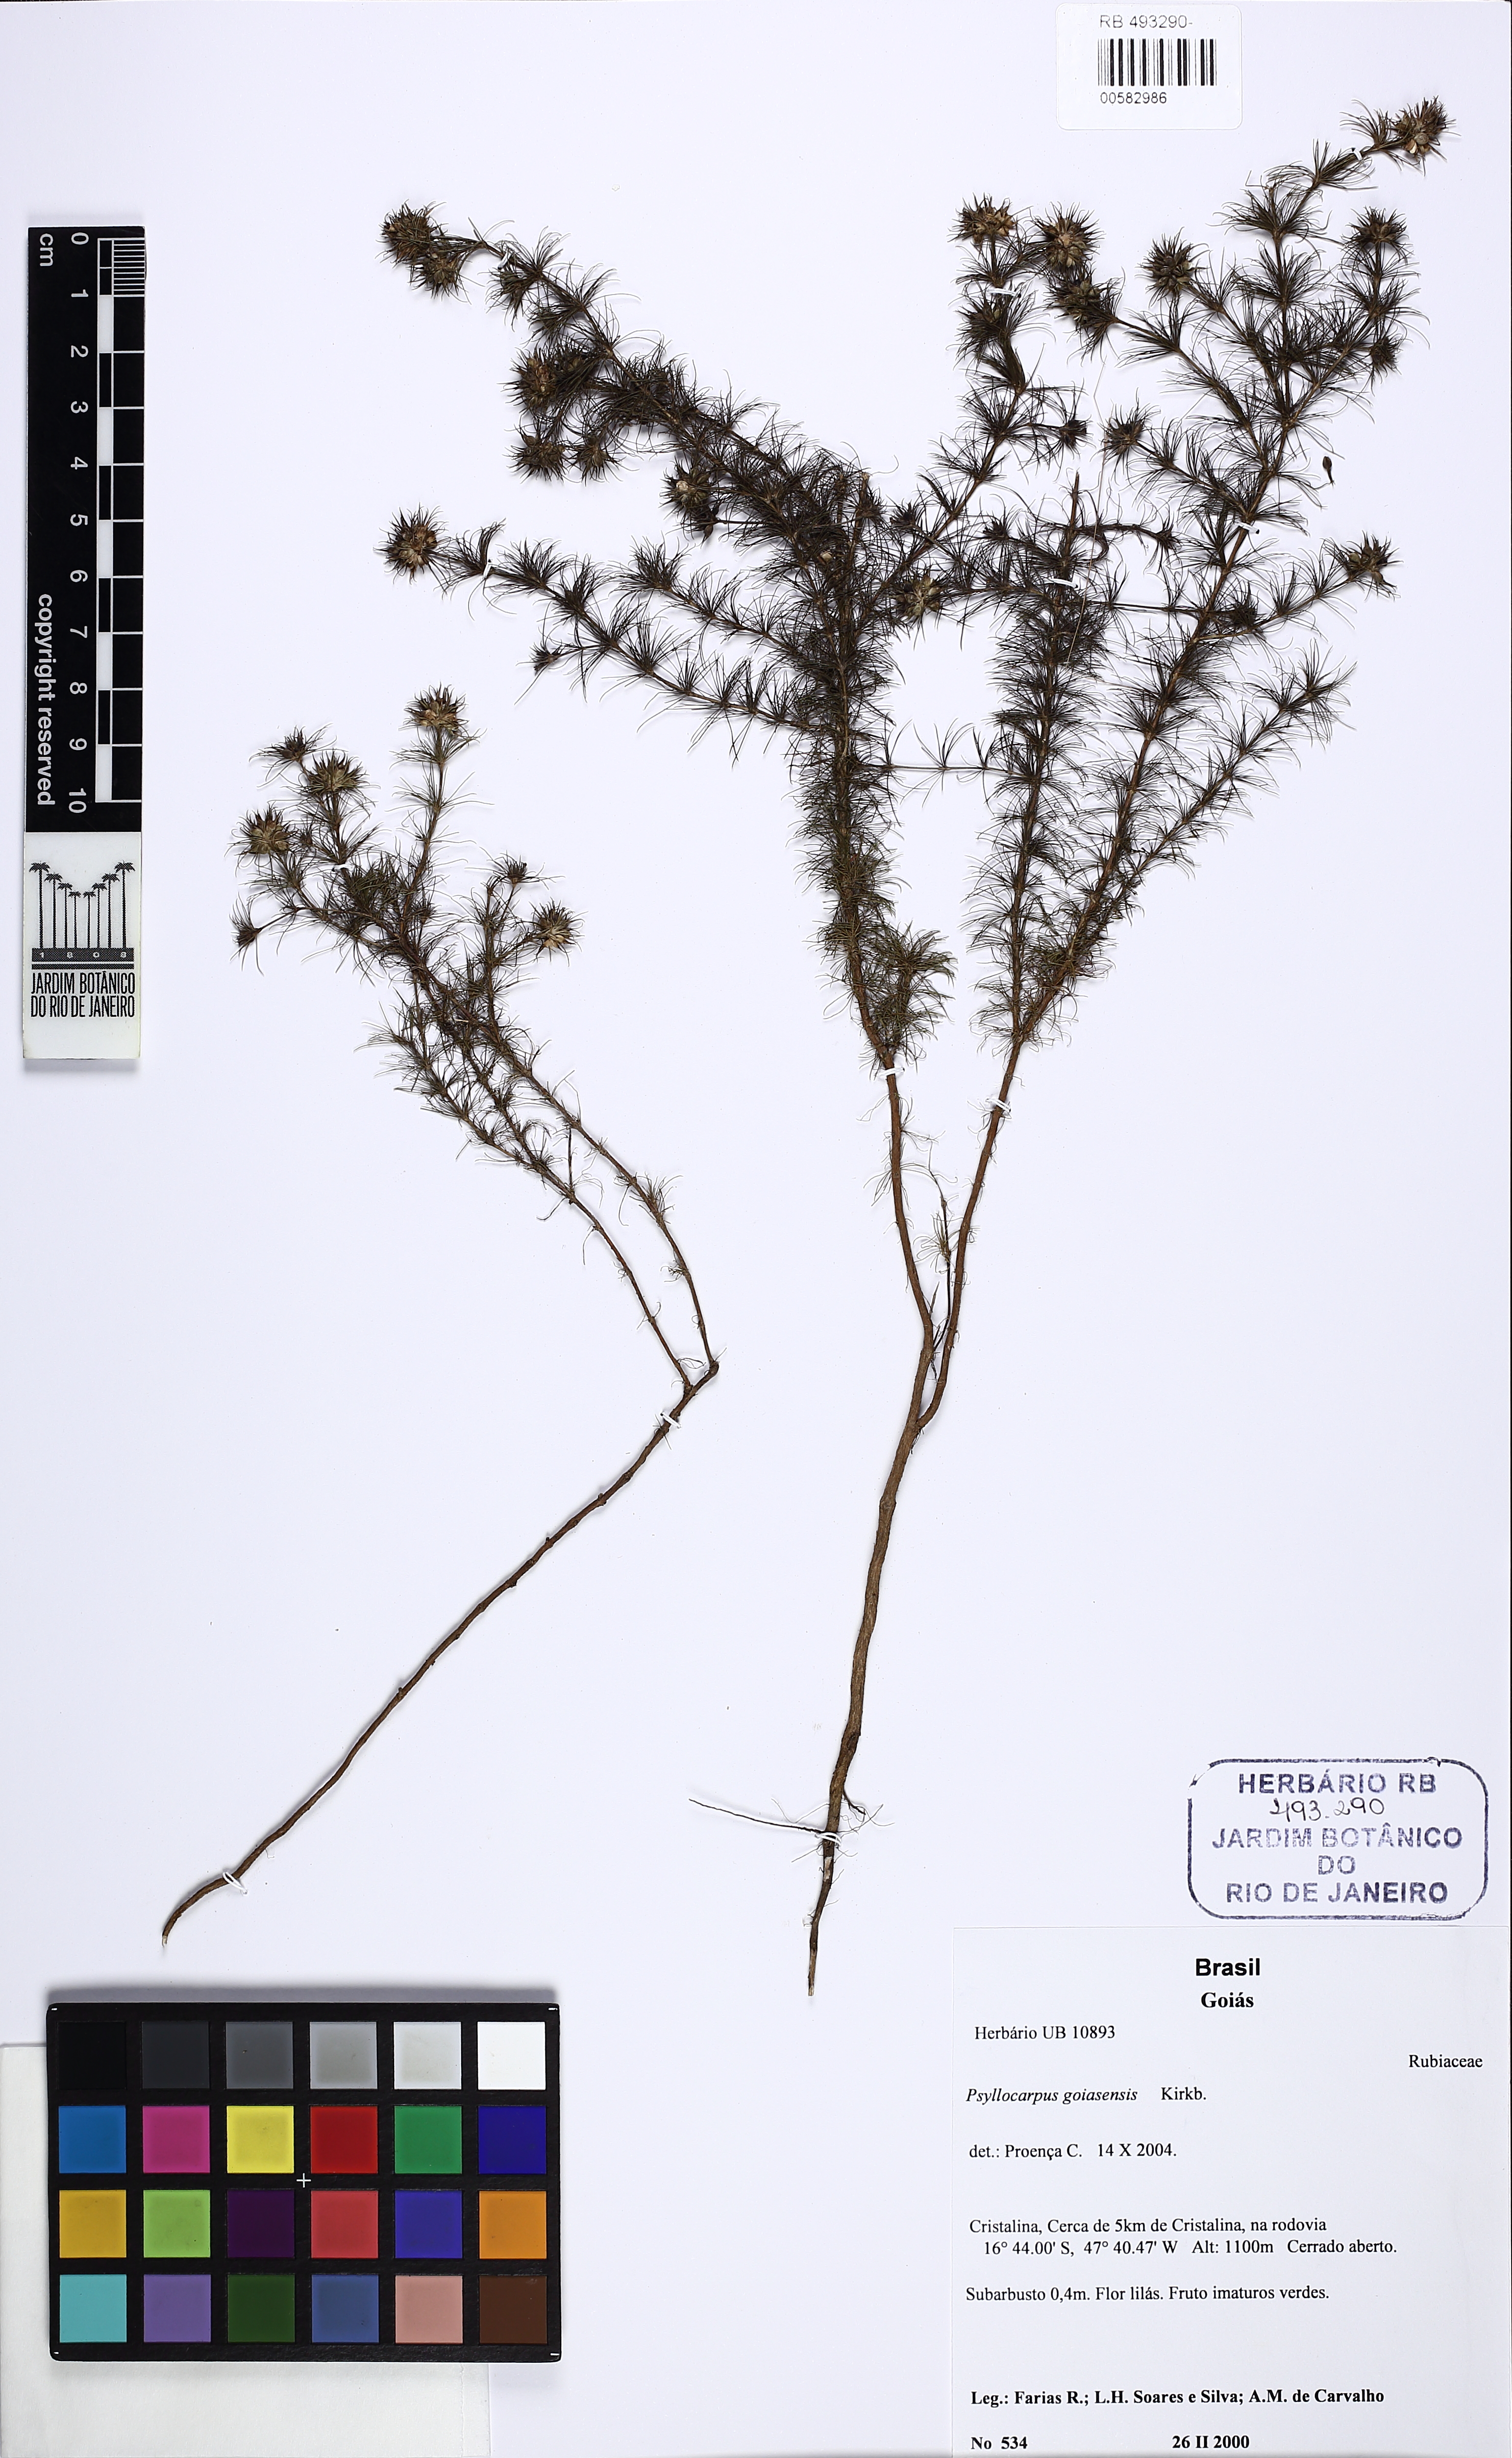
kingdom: Plantae
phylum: Tracheophyta
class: Magnoliopsida
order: Gentianales
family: Rubiaceae
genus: Psyllocarpus
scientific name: Psyllocarpus phyllocephalus
